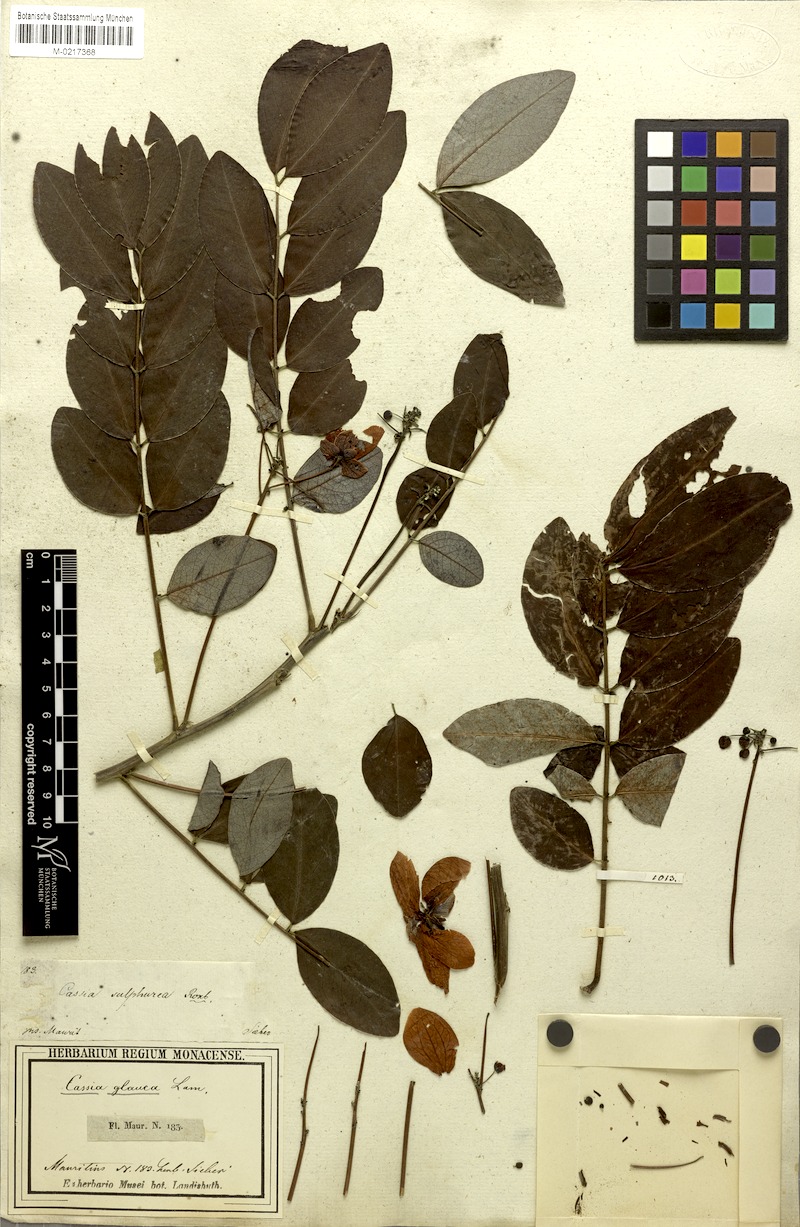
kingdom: Plantae
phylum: Tracheophyta
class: Magnoliopsida
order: Fabales
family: Fabaceae
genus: Senna
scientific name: Senna sulfurea
